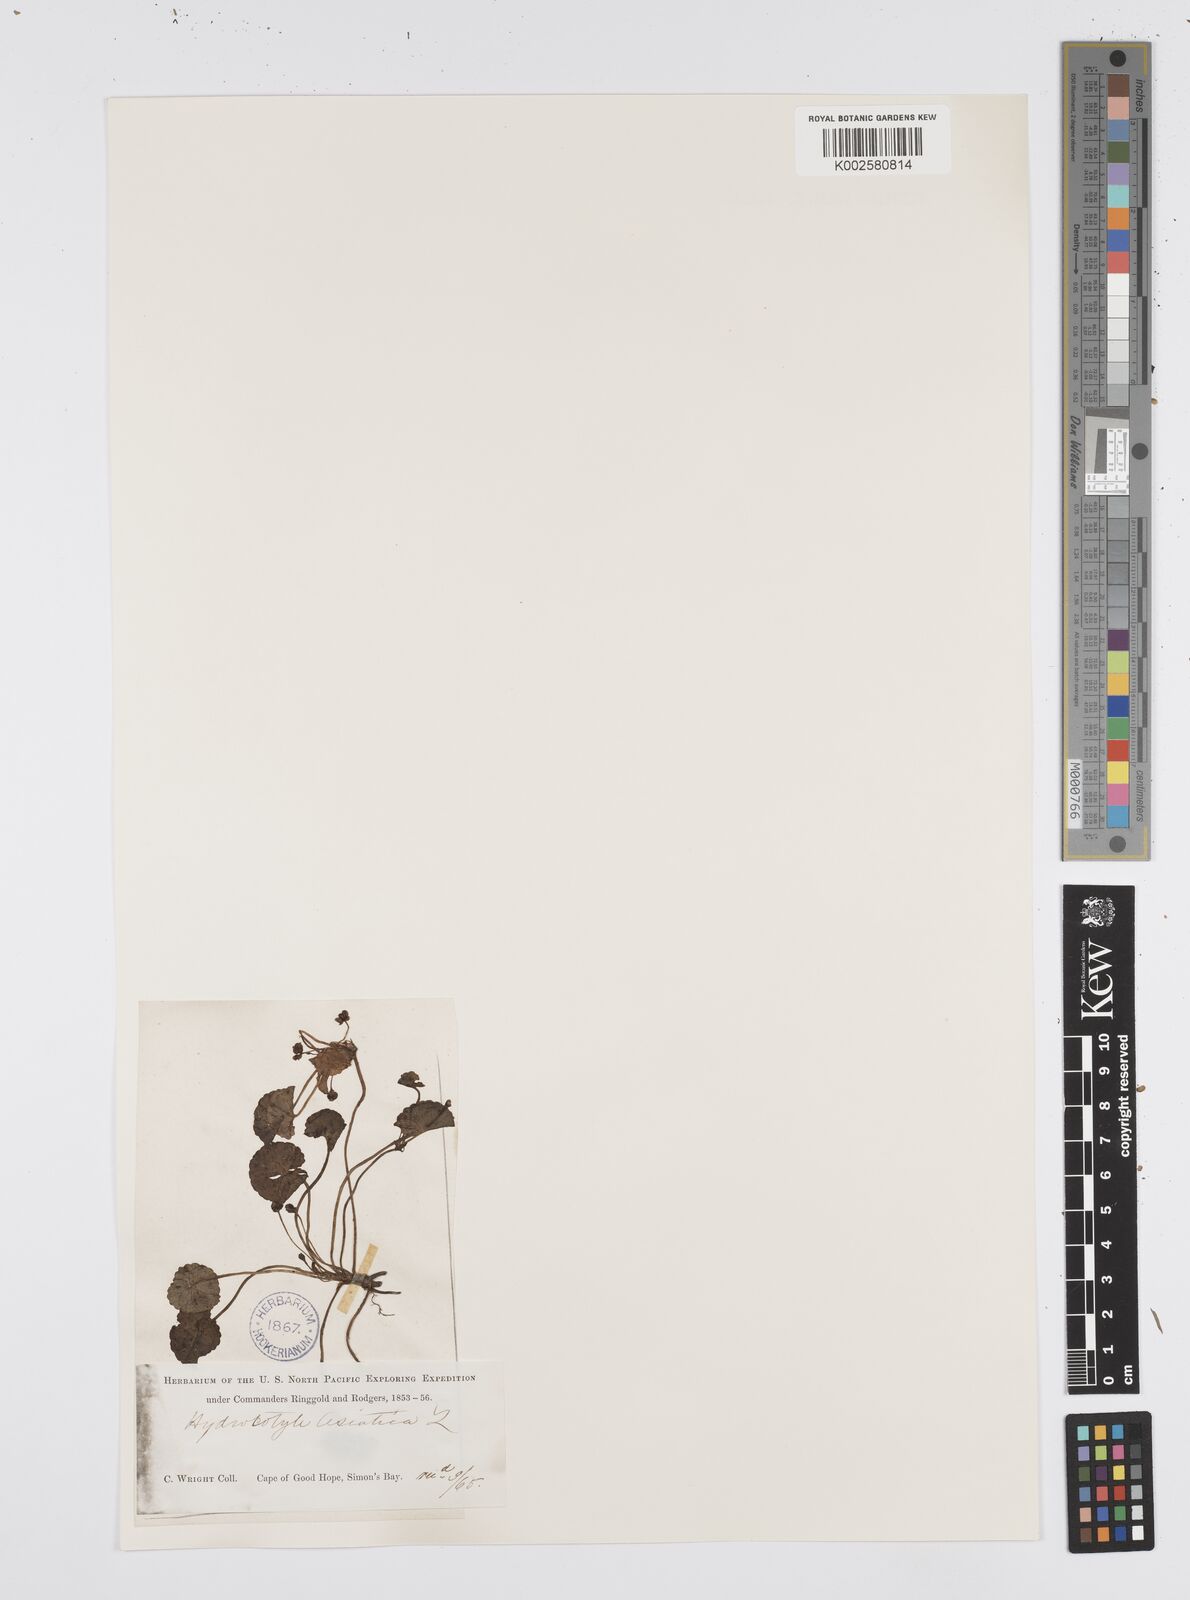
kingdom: Plantae
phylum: Tracheophyta
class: Magnoliopsida
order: Apiales
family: Apiaceae
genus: Centella
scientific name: Centella coriacea
